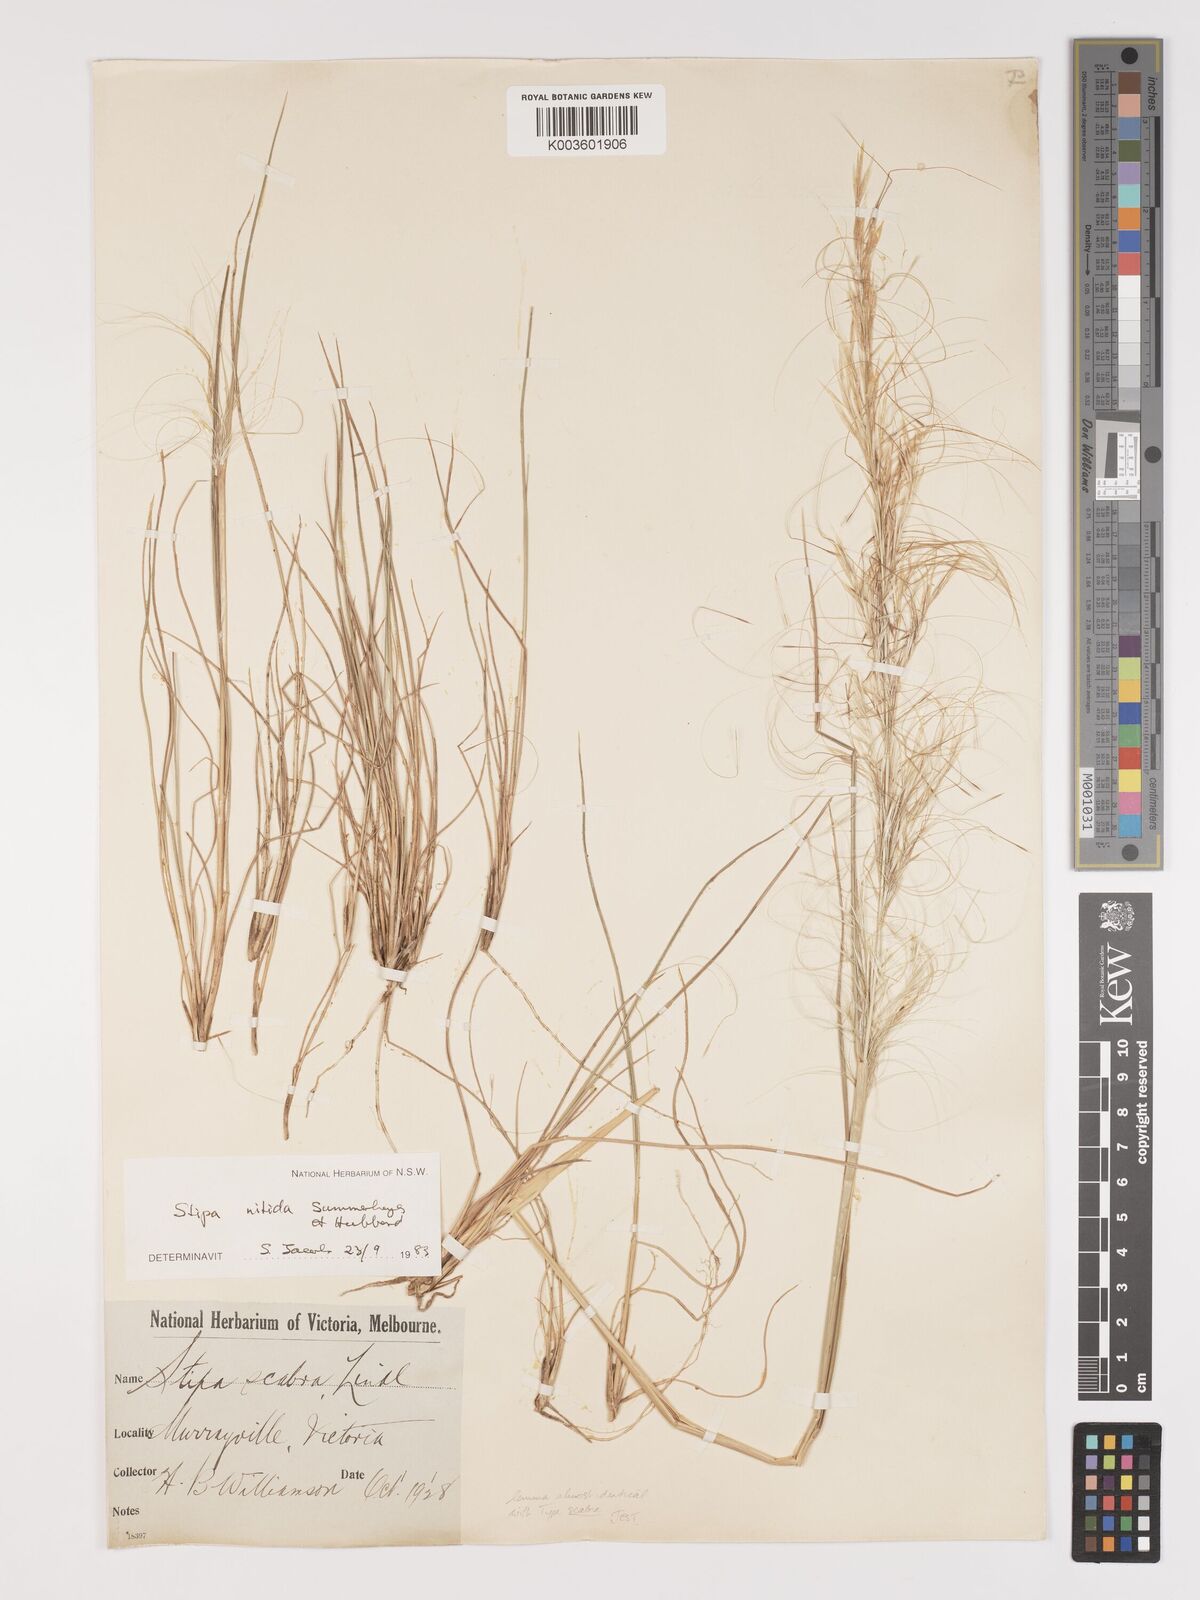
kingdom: Plantae
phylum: Tracheophyta
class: Liliopsida
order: Poales
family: Poaceae
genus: Austrostipa
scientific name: Austrostipa nitida
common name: Balcarra grass
